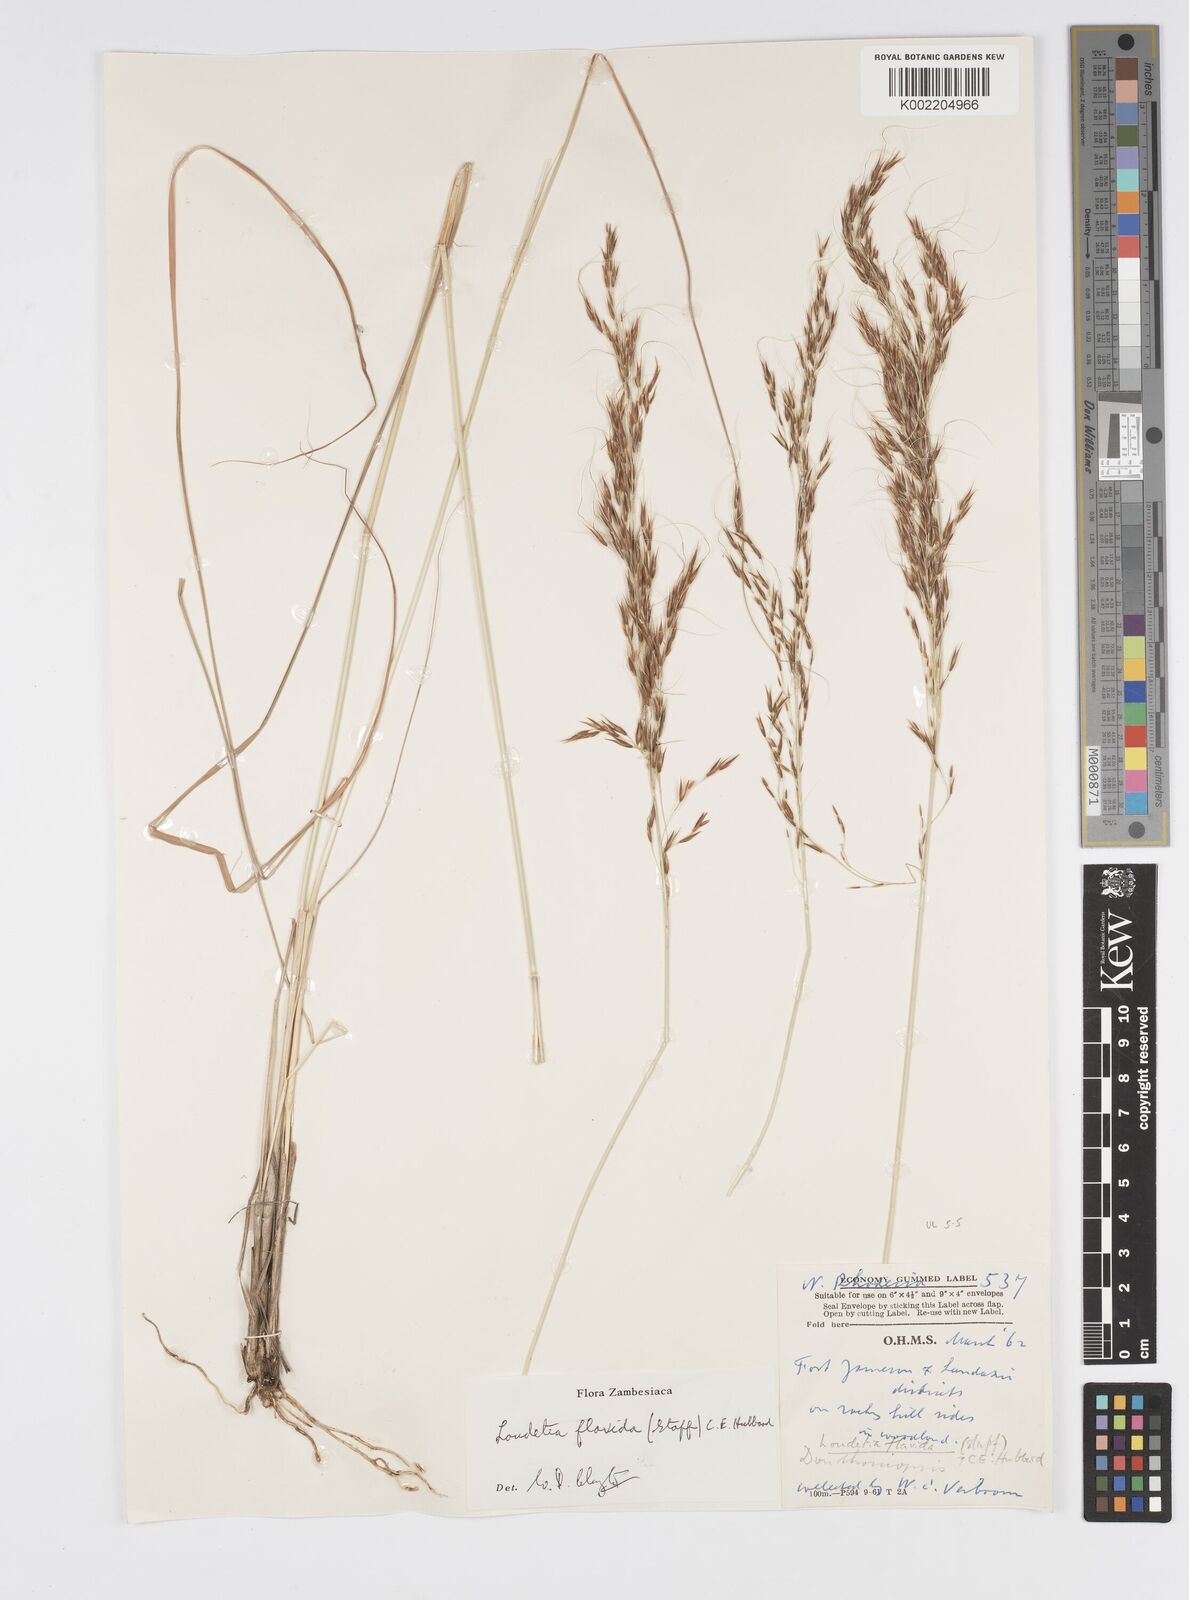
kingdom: Plantae
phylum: Tracheophyta
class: Liliopsida
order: Poales
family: Poaceae
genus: Loudetia
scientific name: Loudetia flavida
